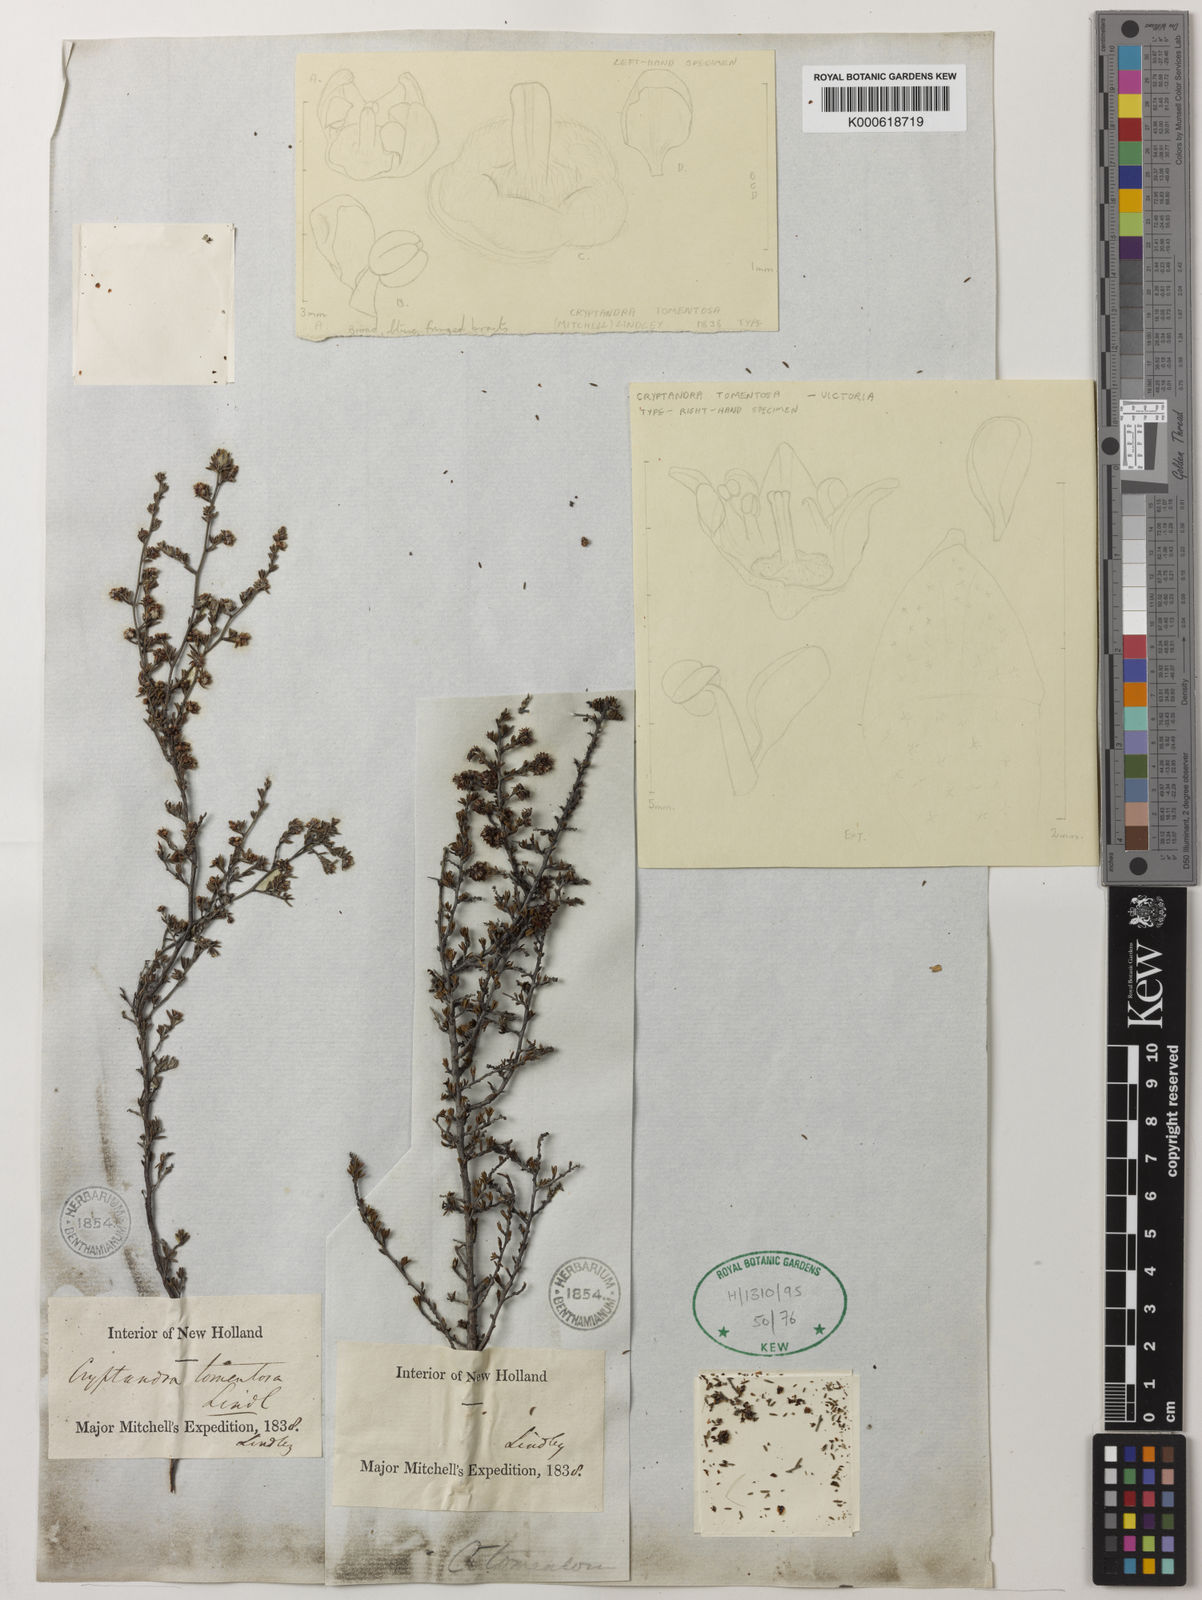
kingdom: Plantae
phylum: Tracheophyta
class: Magnoliopsida
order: Rosales
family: Rhamnaceae
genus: Cryptandra
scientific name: Cryptandra tomentosa
